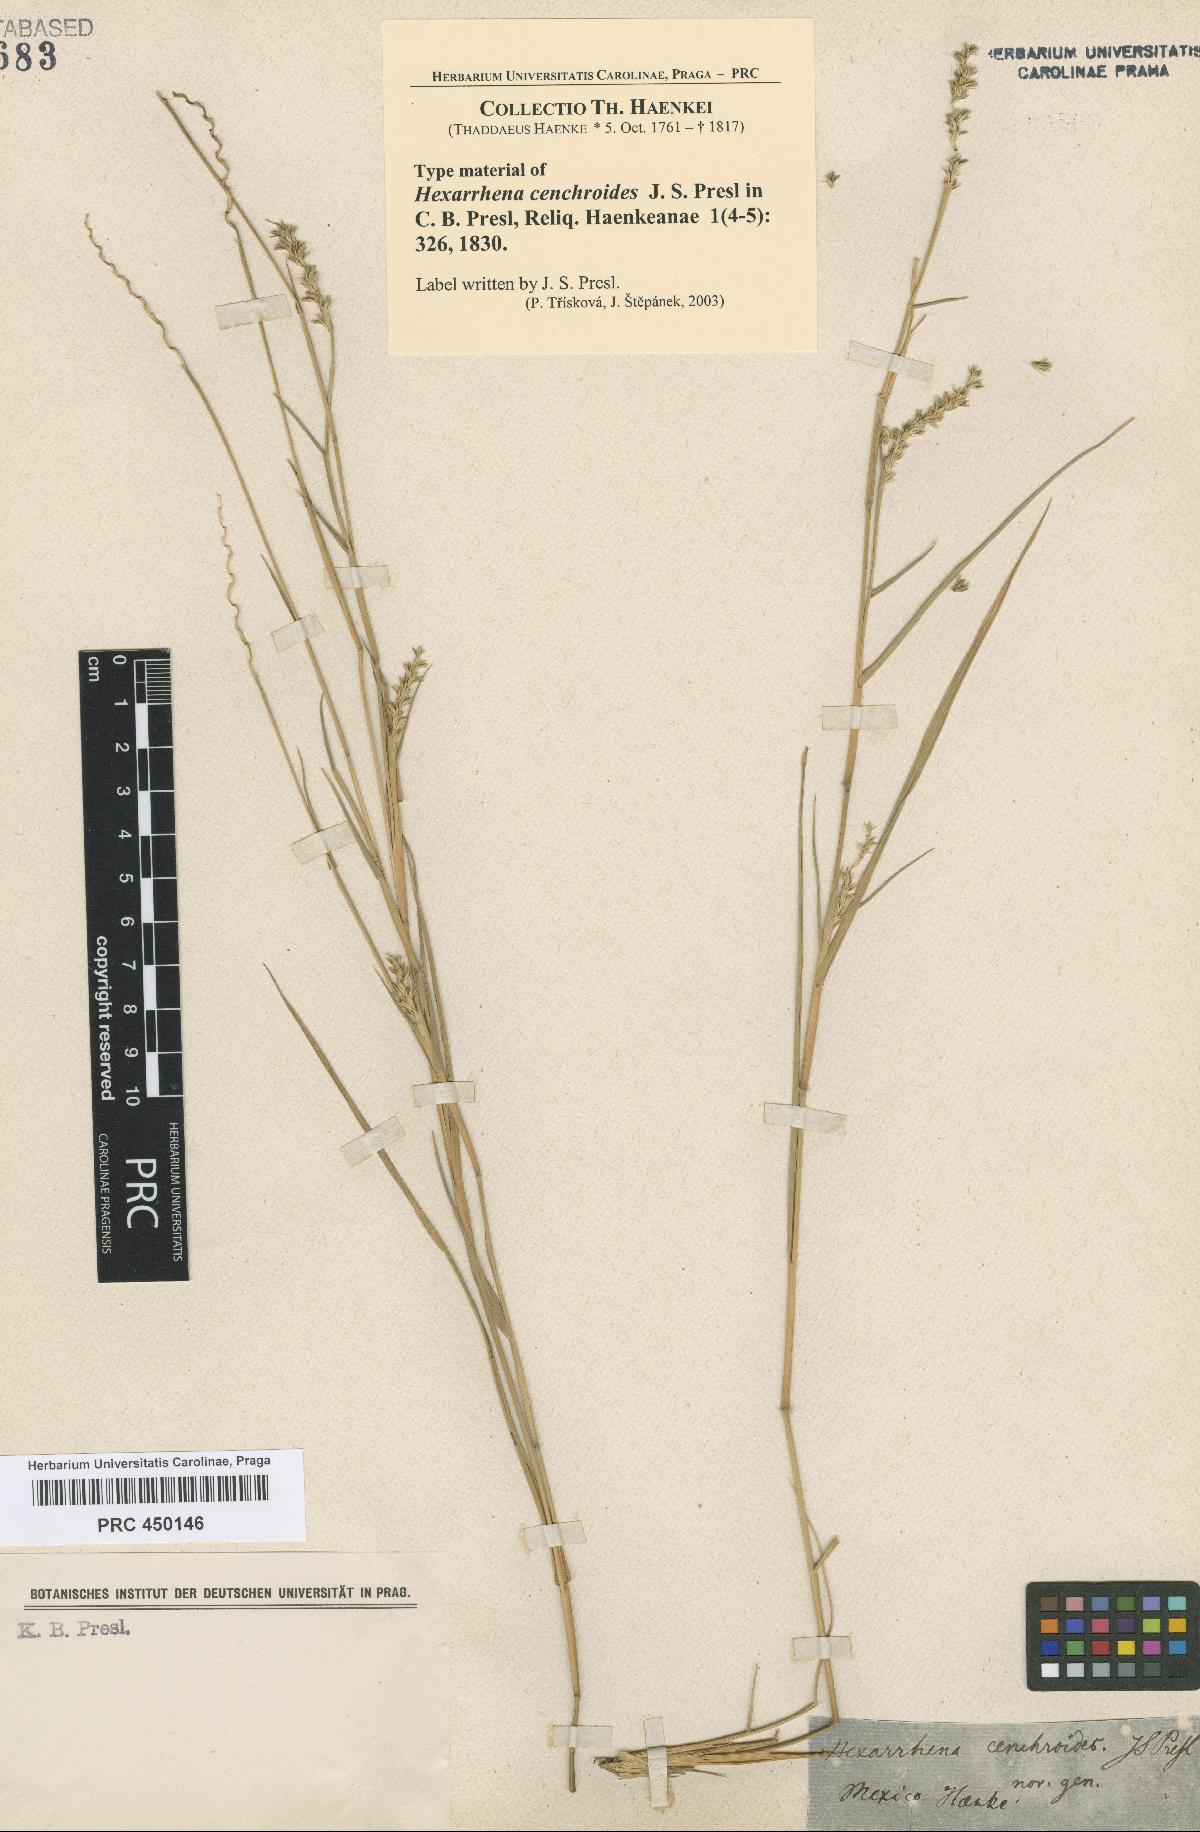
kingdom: Plantae
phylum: Tracheophyta
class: Liliopsida
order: Poales
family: Poaceae
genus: Hilaria
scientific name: Hilaria cenchroides
